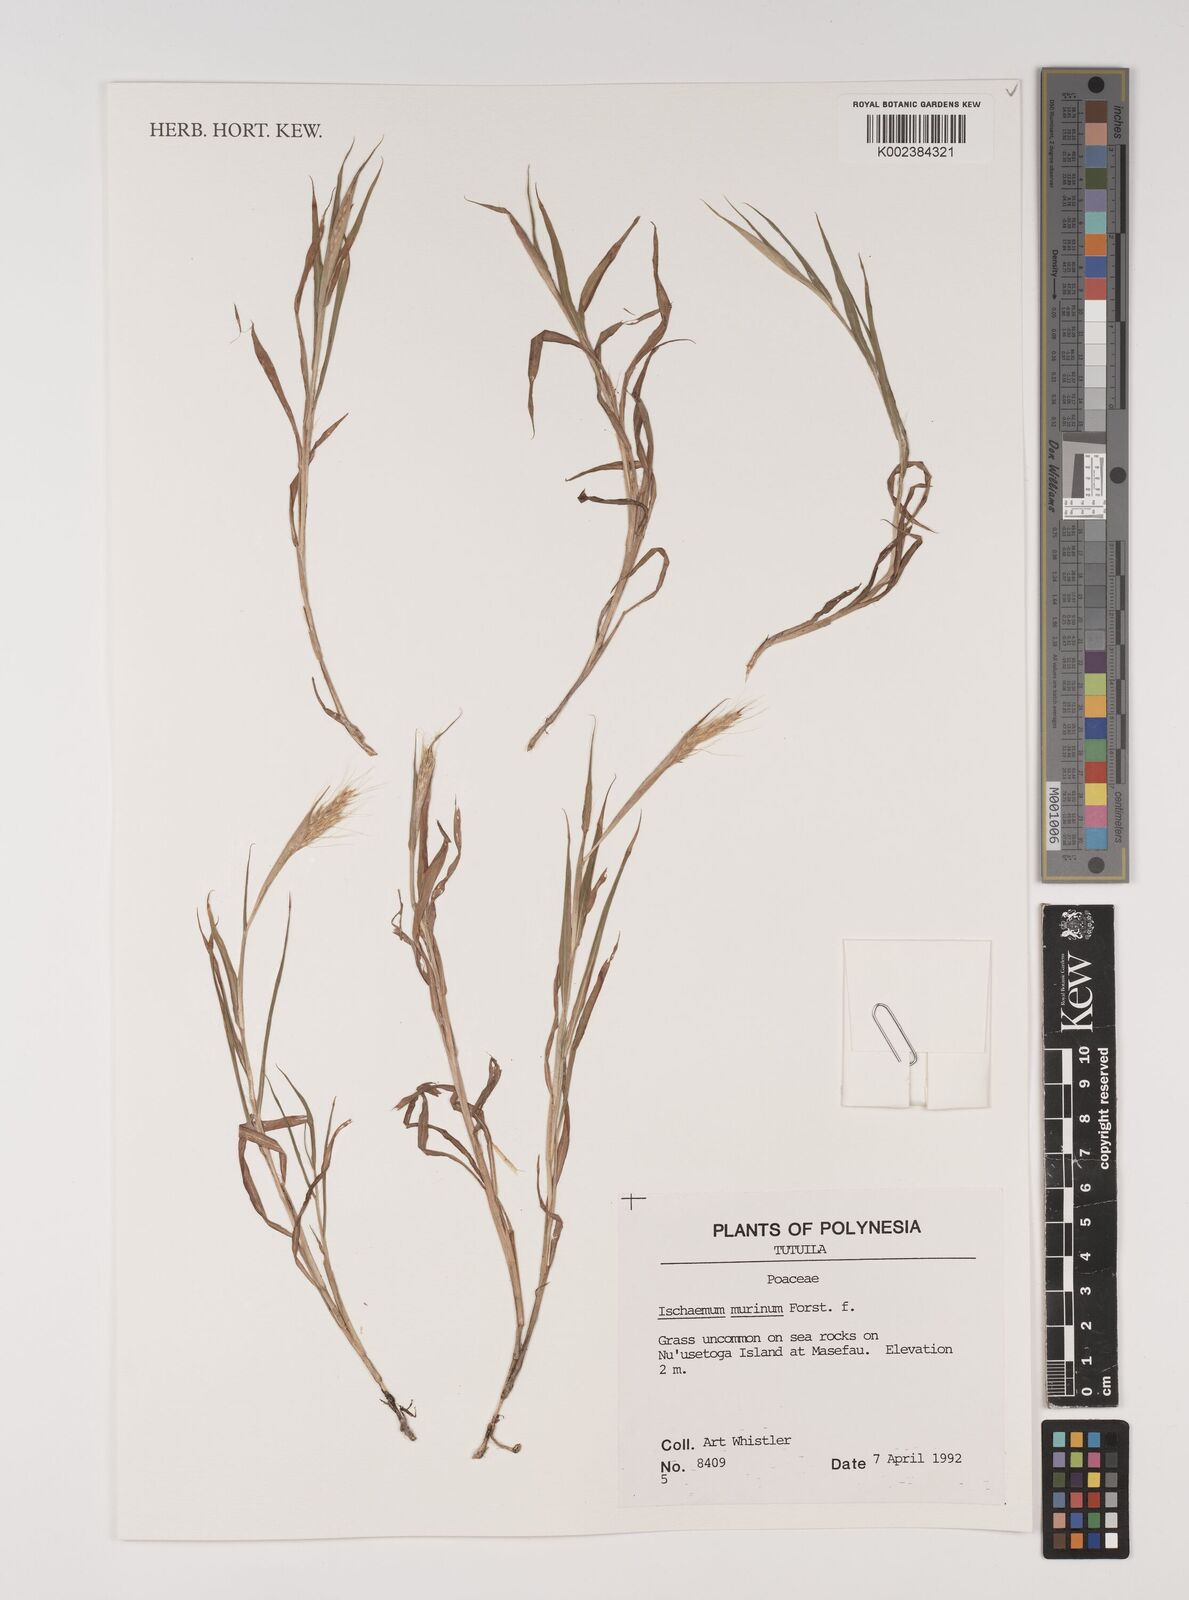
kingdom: Plantae
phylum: Tracheophyta
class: Liliopsida
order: Poales
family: Poaceae
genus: Ischaemum
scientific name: Ischaemum murinum
